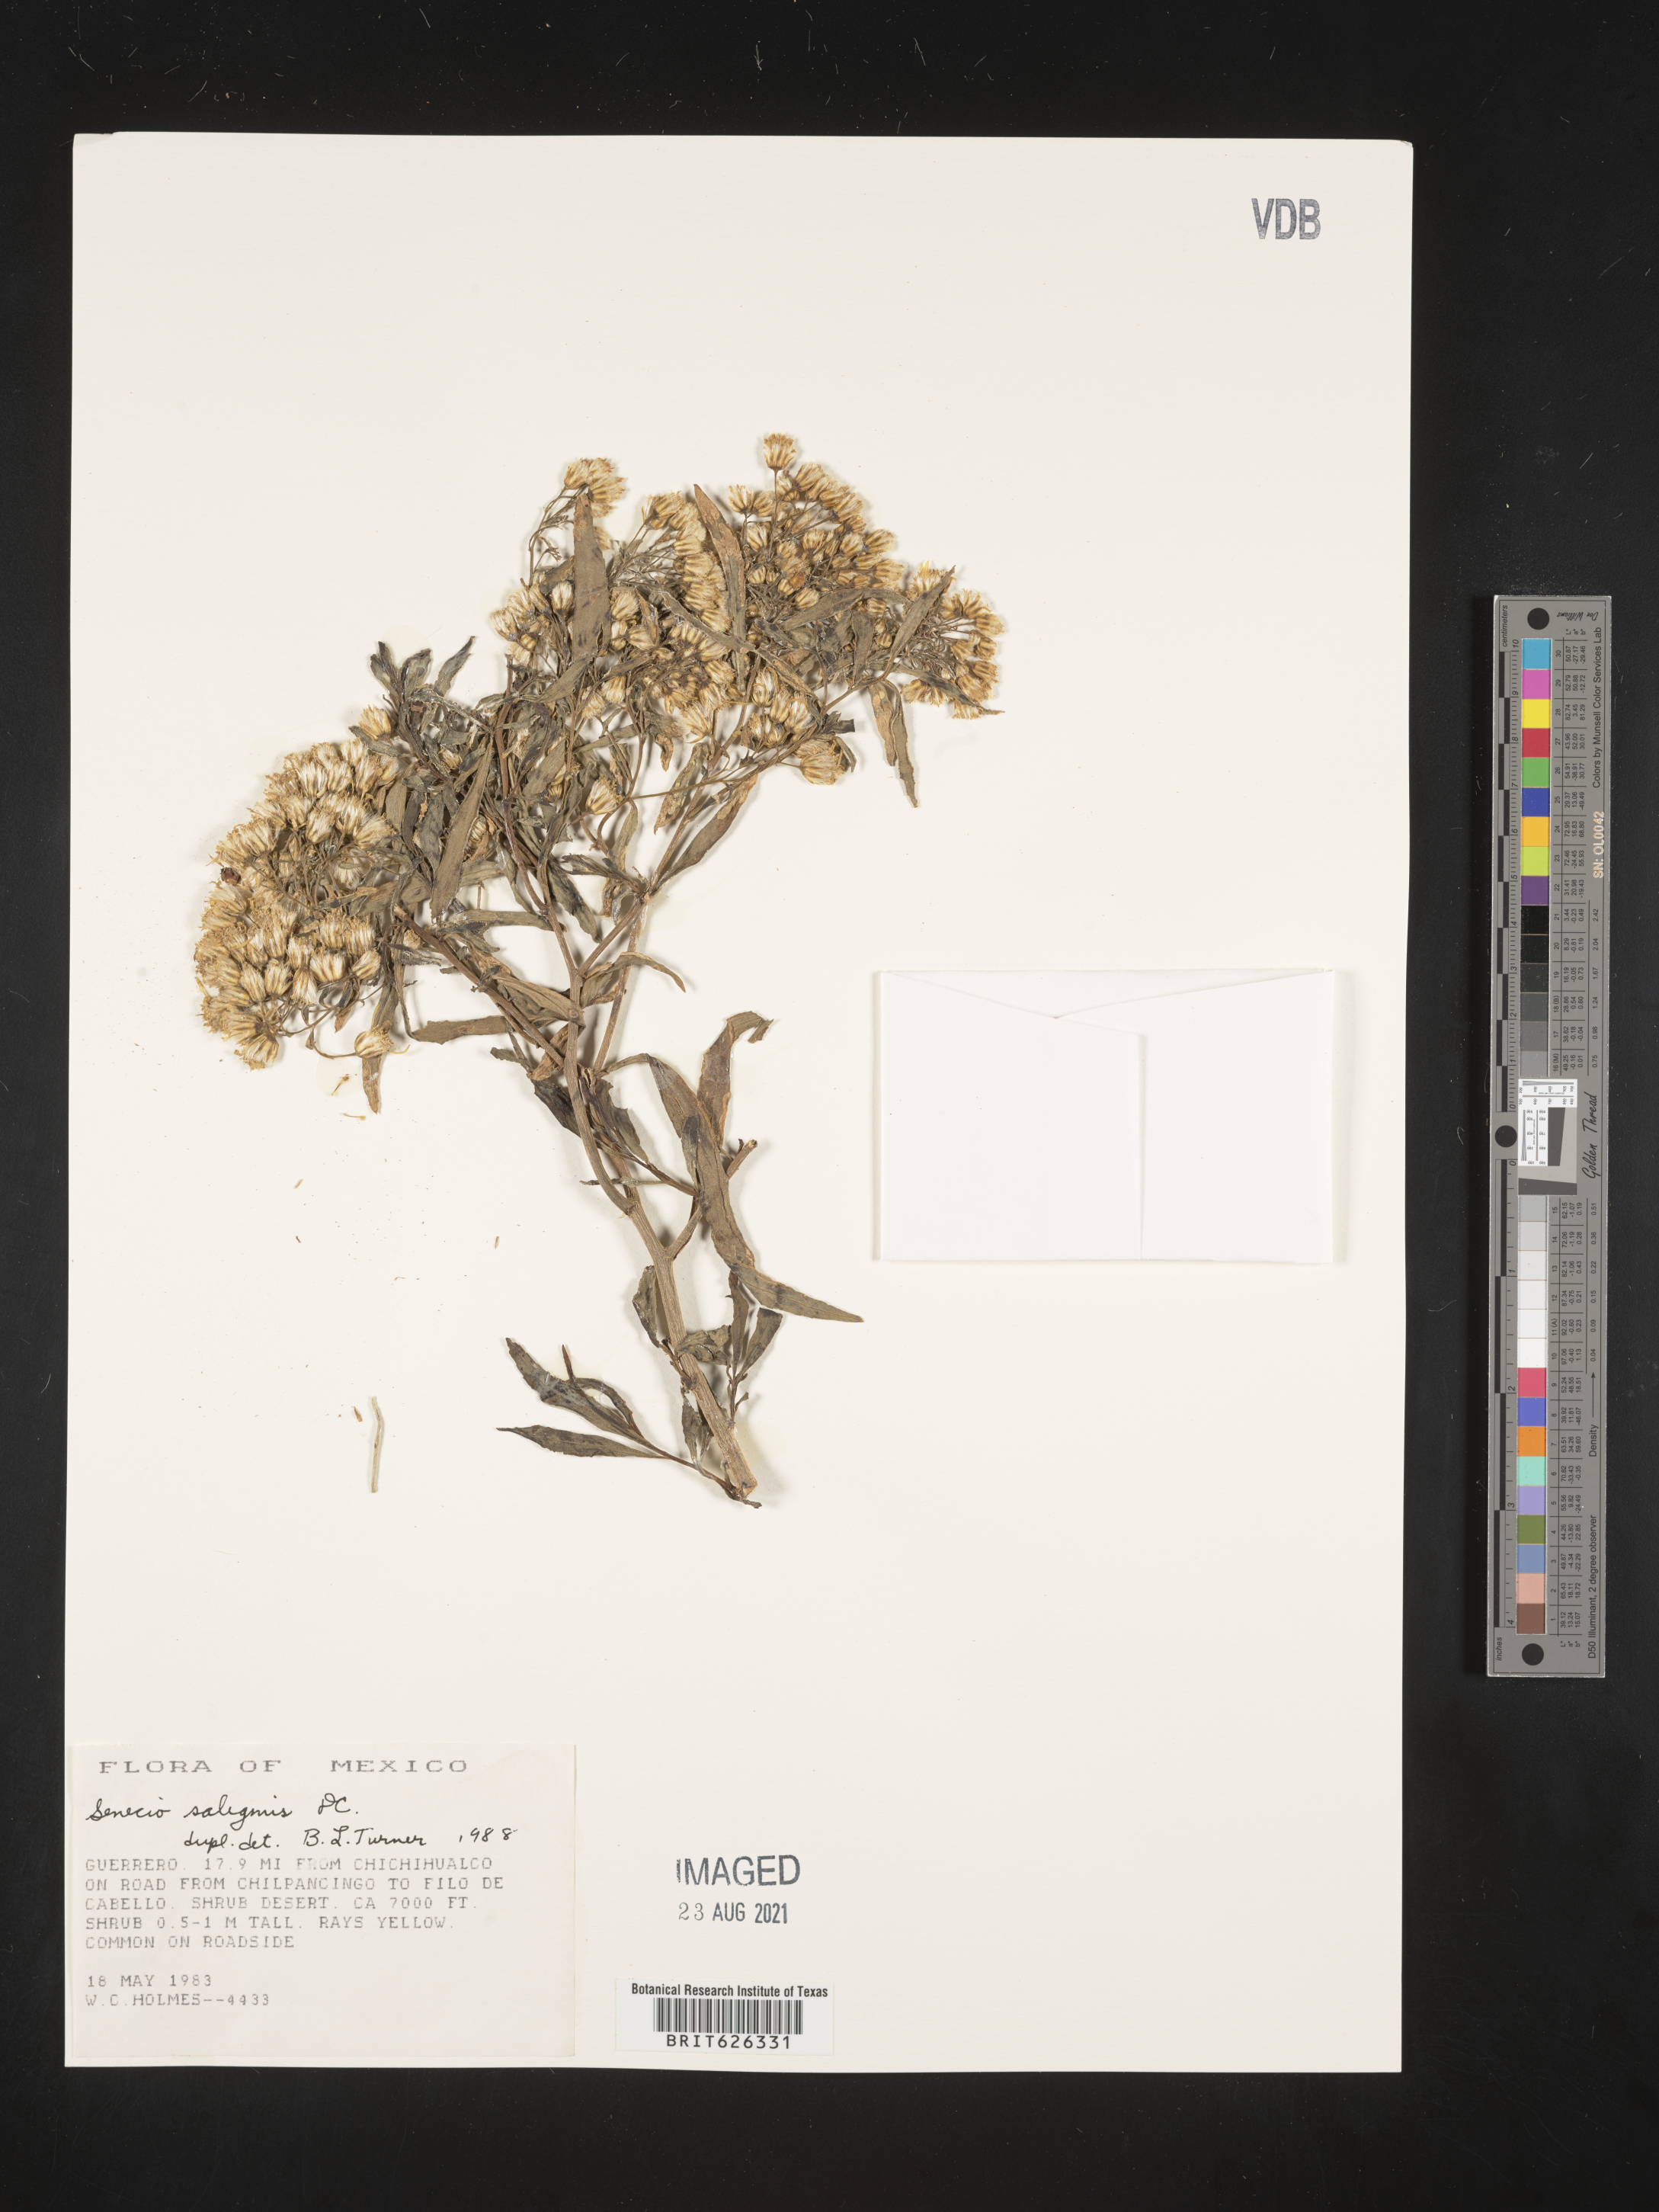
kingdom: Plantae
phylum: Tracheophyta
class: Magnoliopsida
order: Asterales
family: Asteraceae
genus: Senecio
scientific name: Senecio
